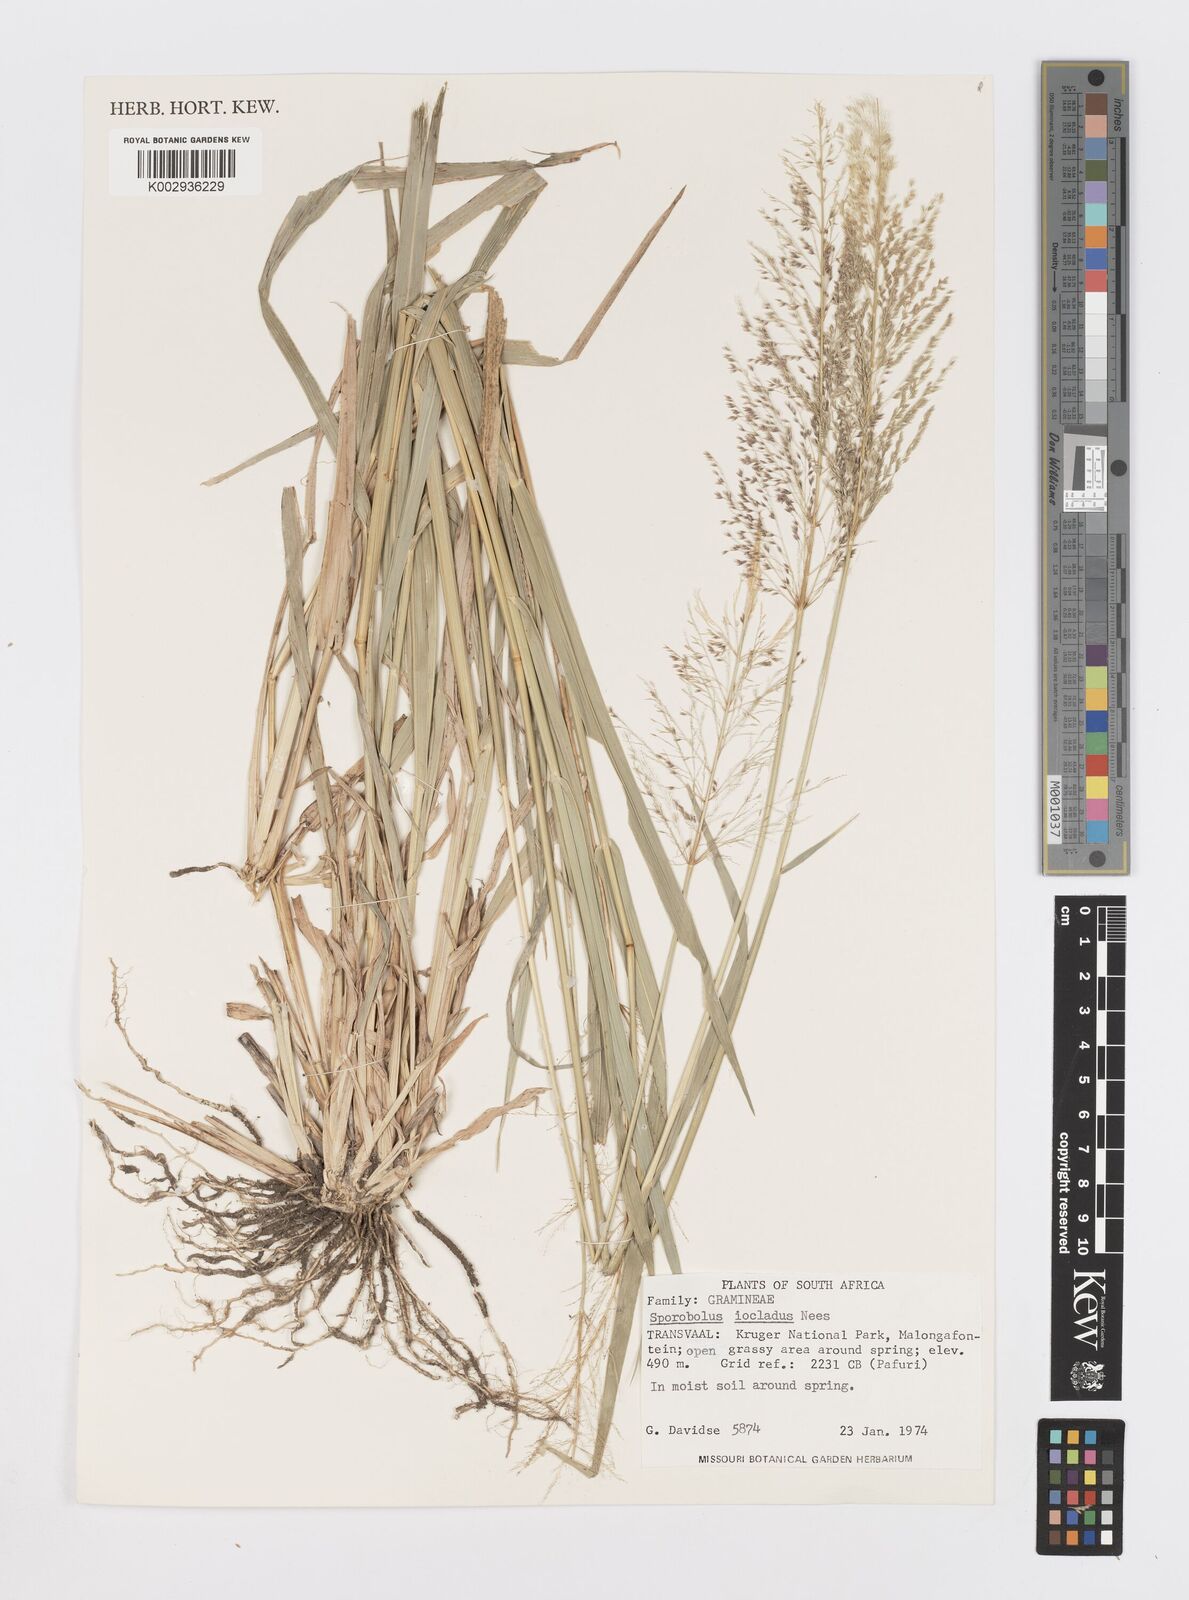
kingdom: Plantae
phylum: Tracheophyta
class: Liliopsida
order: Poales
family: Poaceae
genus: Sporobolus
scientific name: Sporobolus ioclados
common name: Pan dropseed
